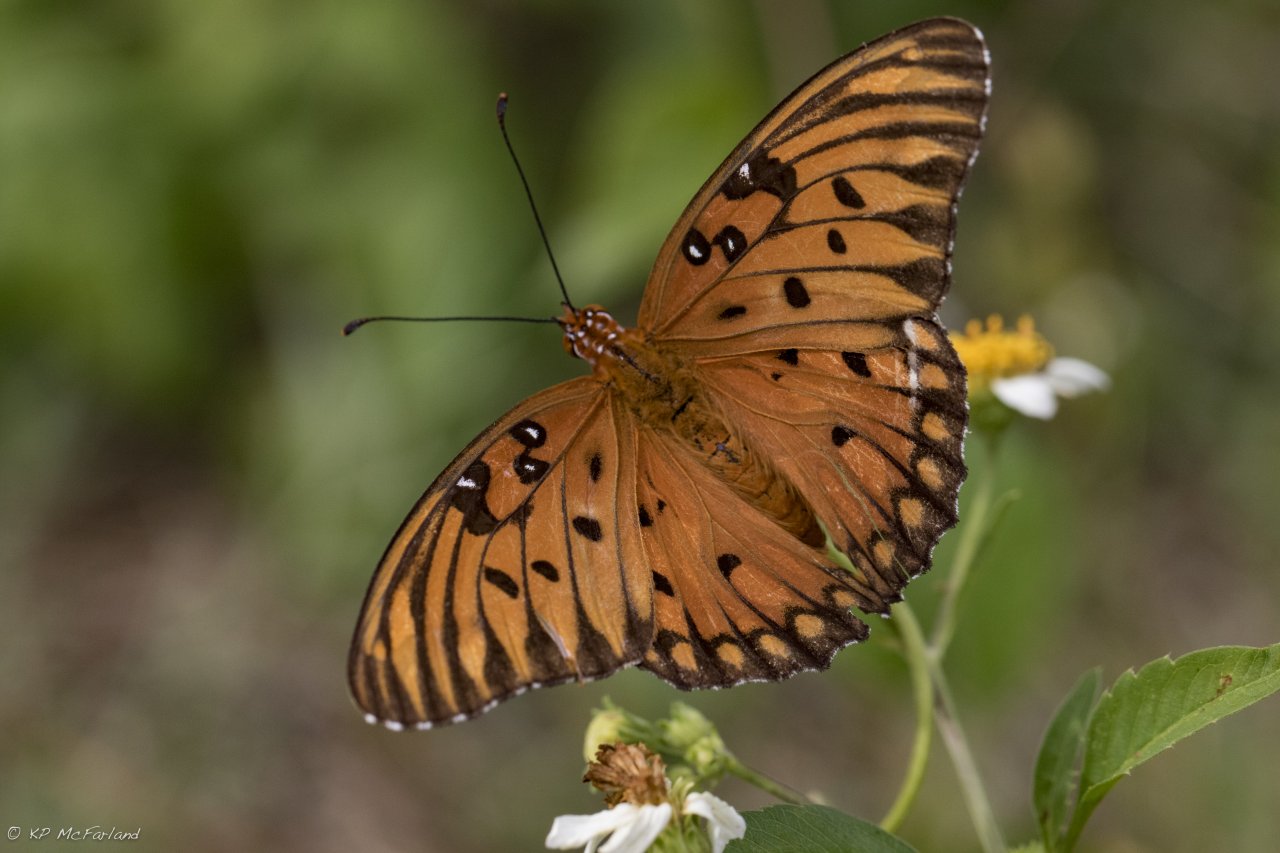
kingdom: Animalia
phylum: Arthropoda
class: Insecta
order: Lepidoptera
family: Nymphalidae
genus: Dione
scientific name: Dione vanillae
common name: Gulf Fritillary
